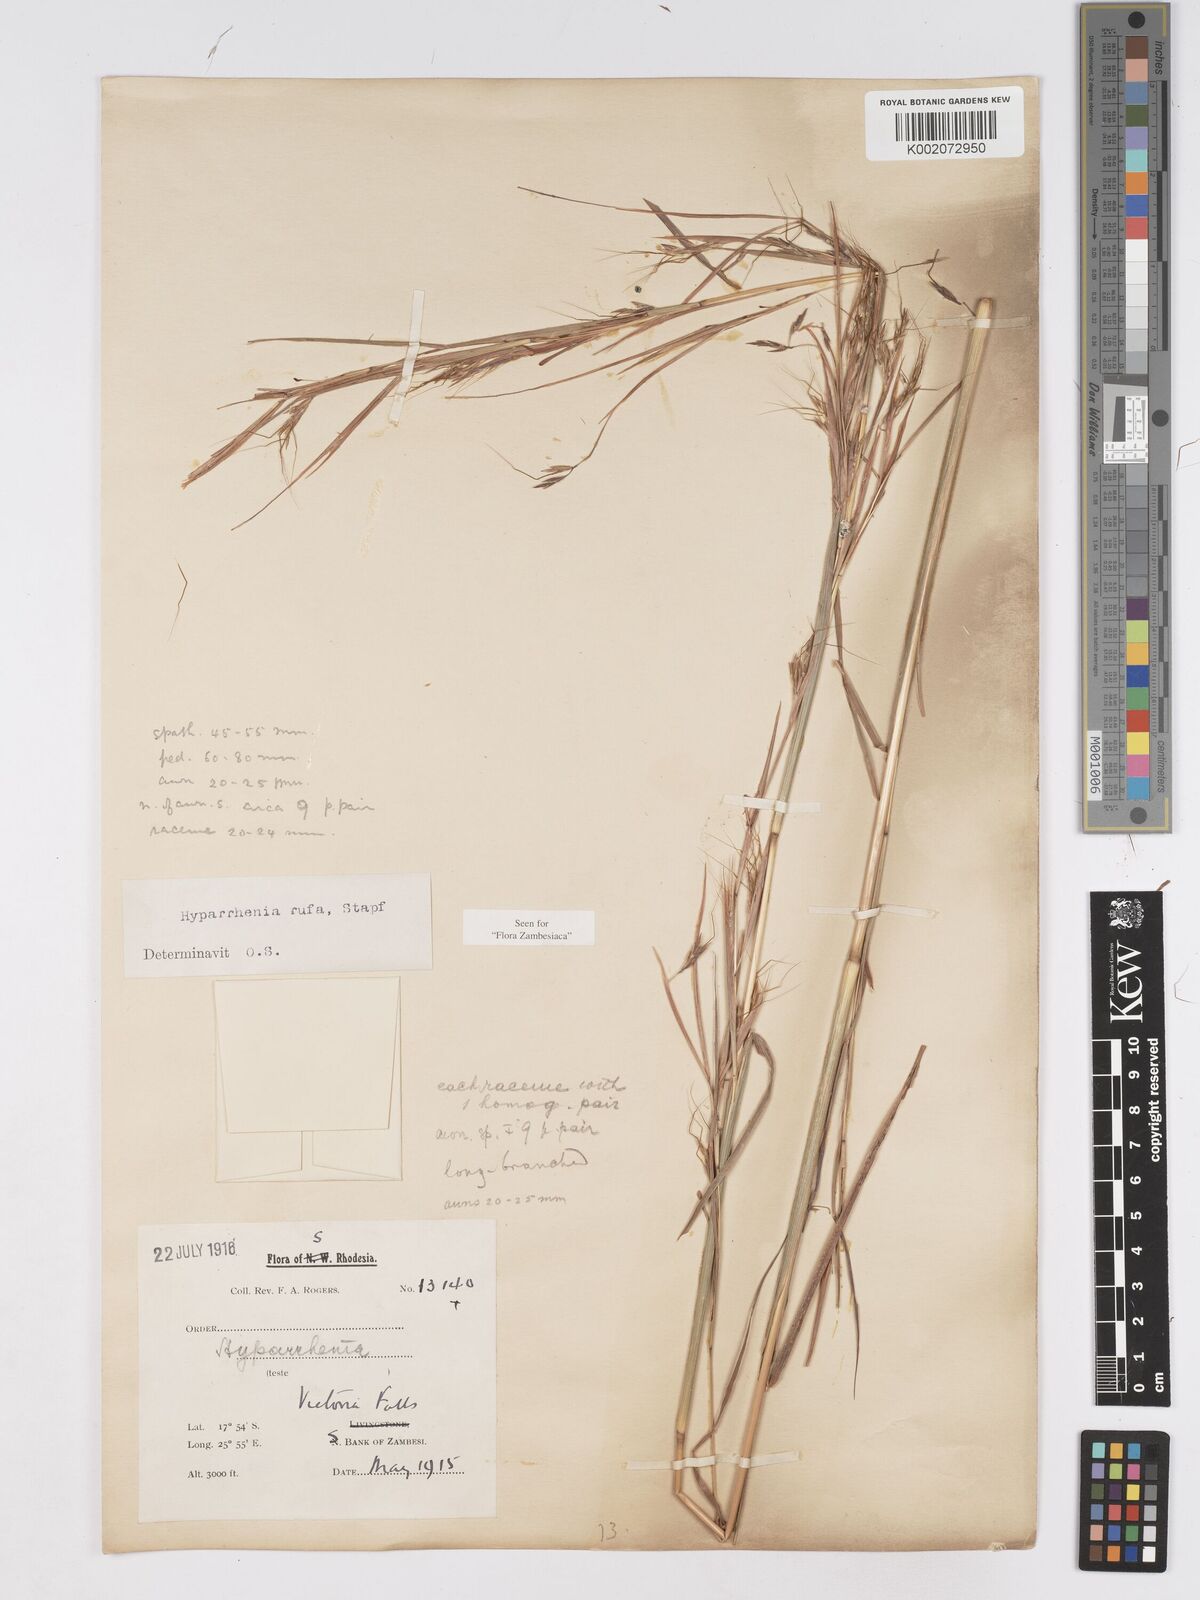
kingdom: Plantae
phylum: Tracheophyta
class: Liliopsida
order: Poales
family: Poaceae
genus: Hyparrhenia
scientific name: Hyparrhenia rufa
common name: Jaraguagrass
